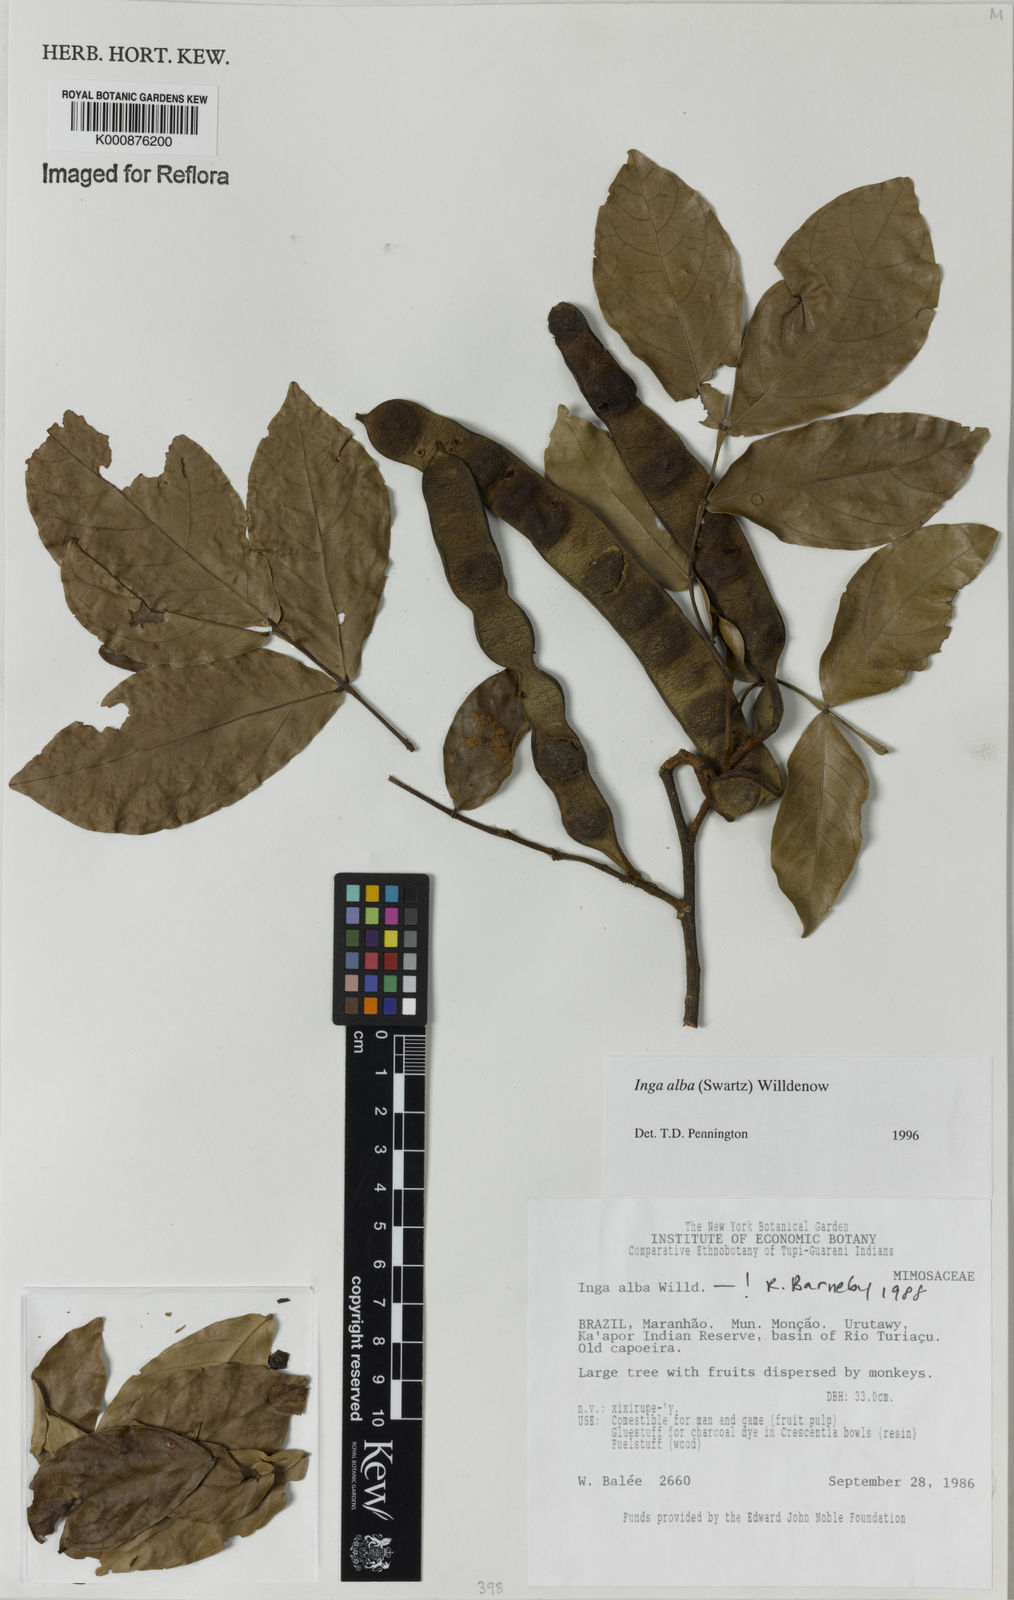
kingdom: Plantae
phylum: Tracheophyta
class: Magnoliopsida
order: Fabales
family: Fabaceae
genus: Inga
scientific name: Inga alba
